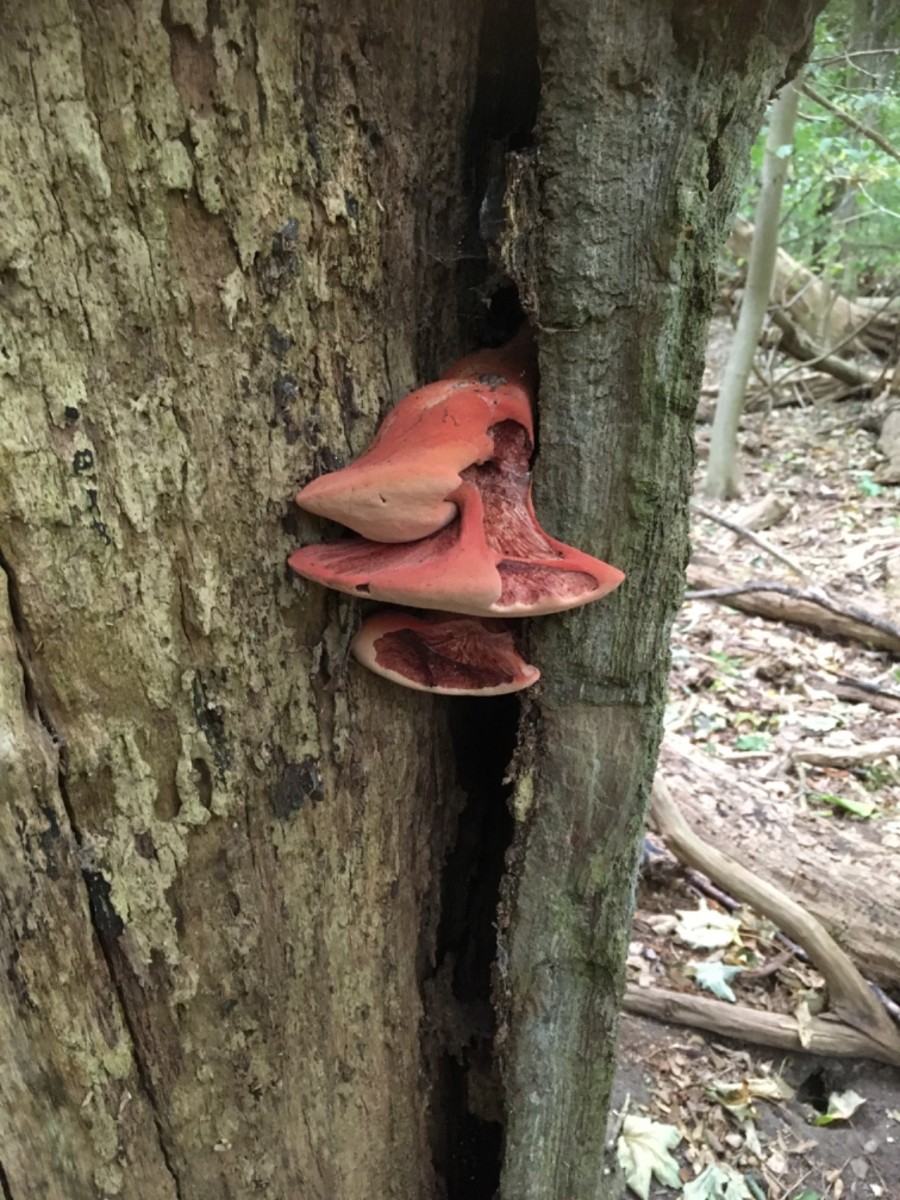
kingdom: Fungi
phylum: Basidiomycota
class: Agaricomycetes
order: Agaricales
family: Fistulinaceae
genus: Fistulina
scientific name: Fistulina hepatica
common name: oksetunge
